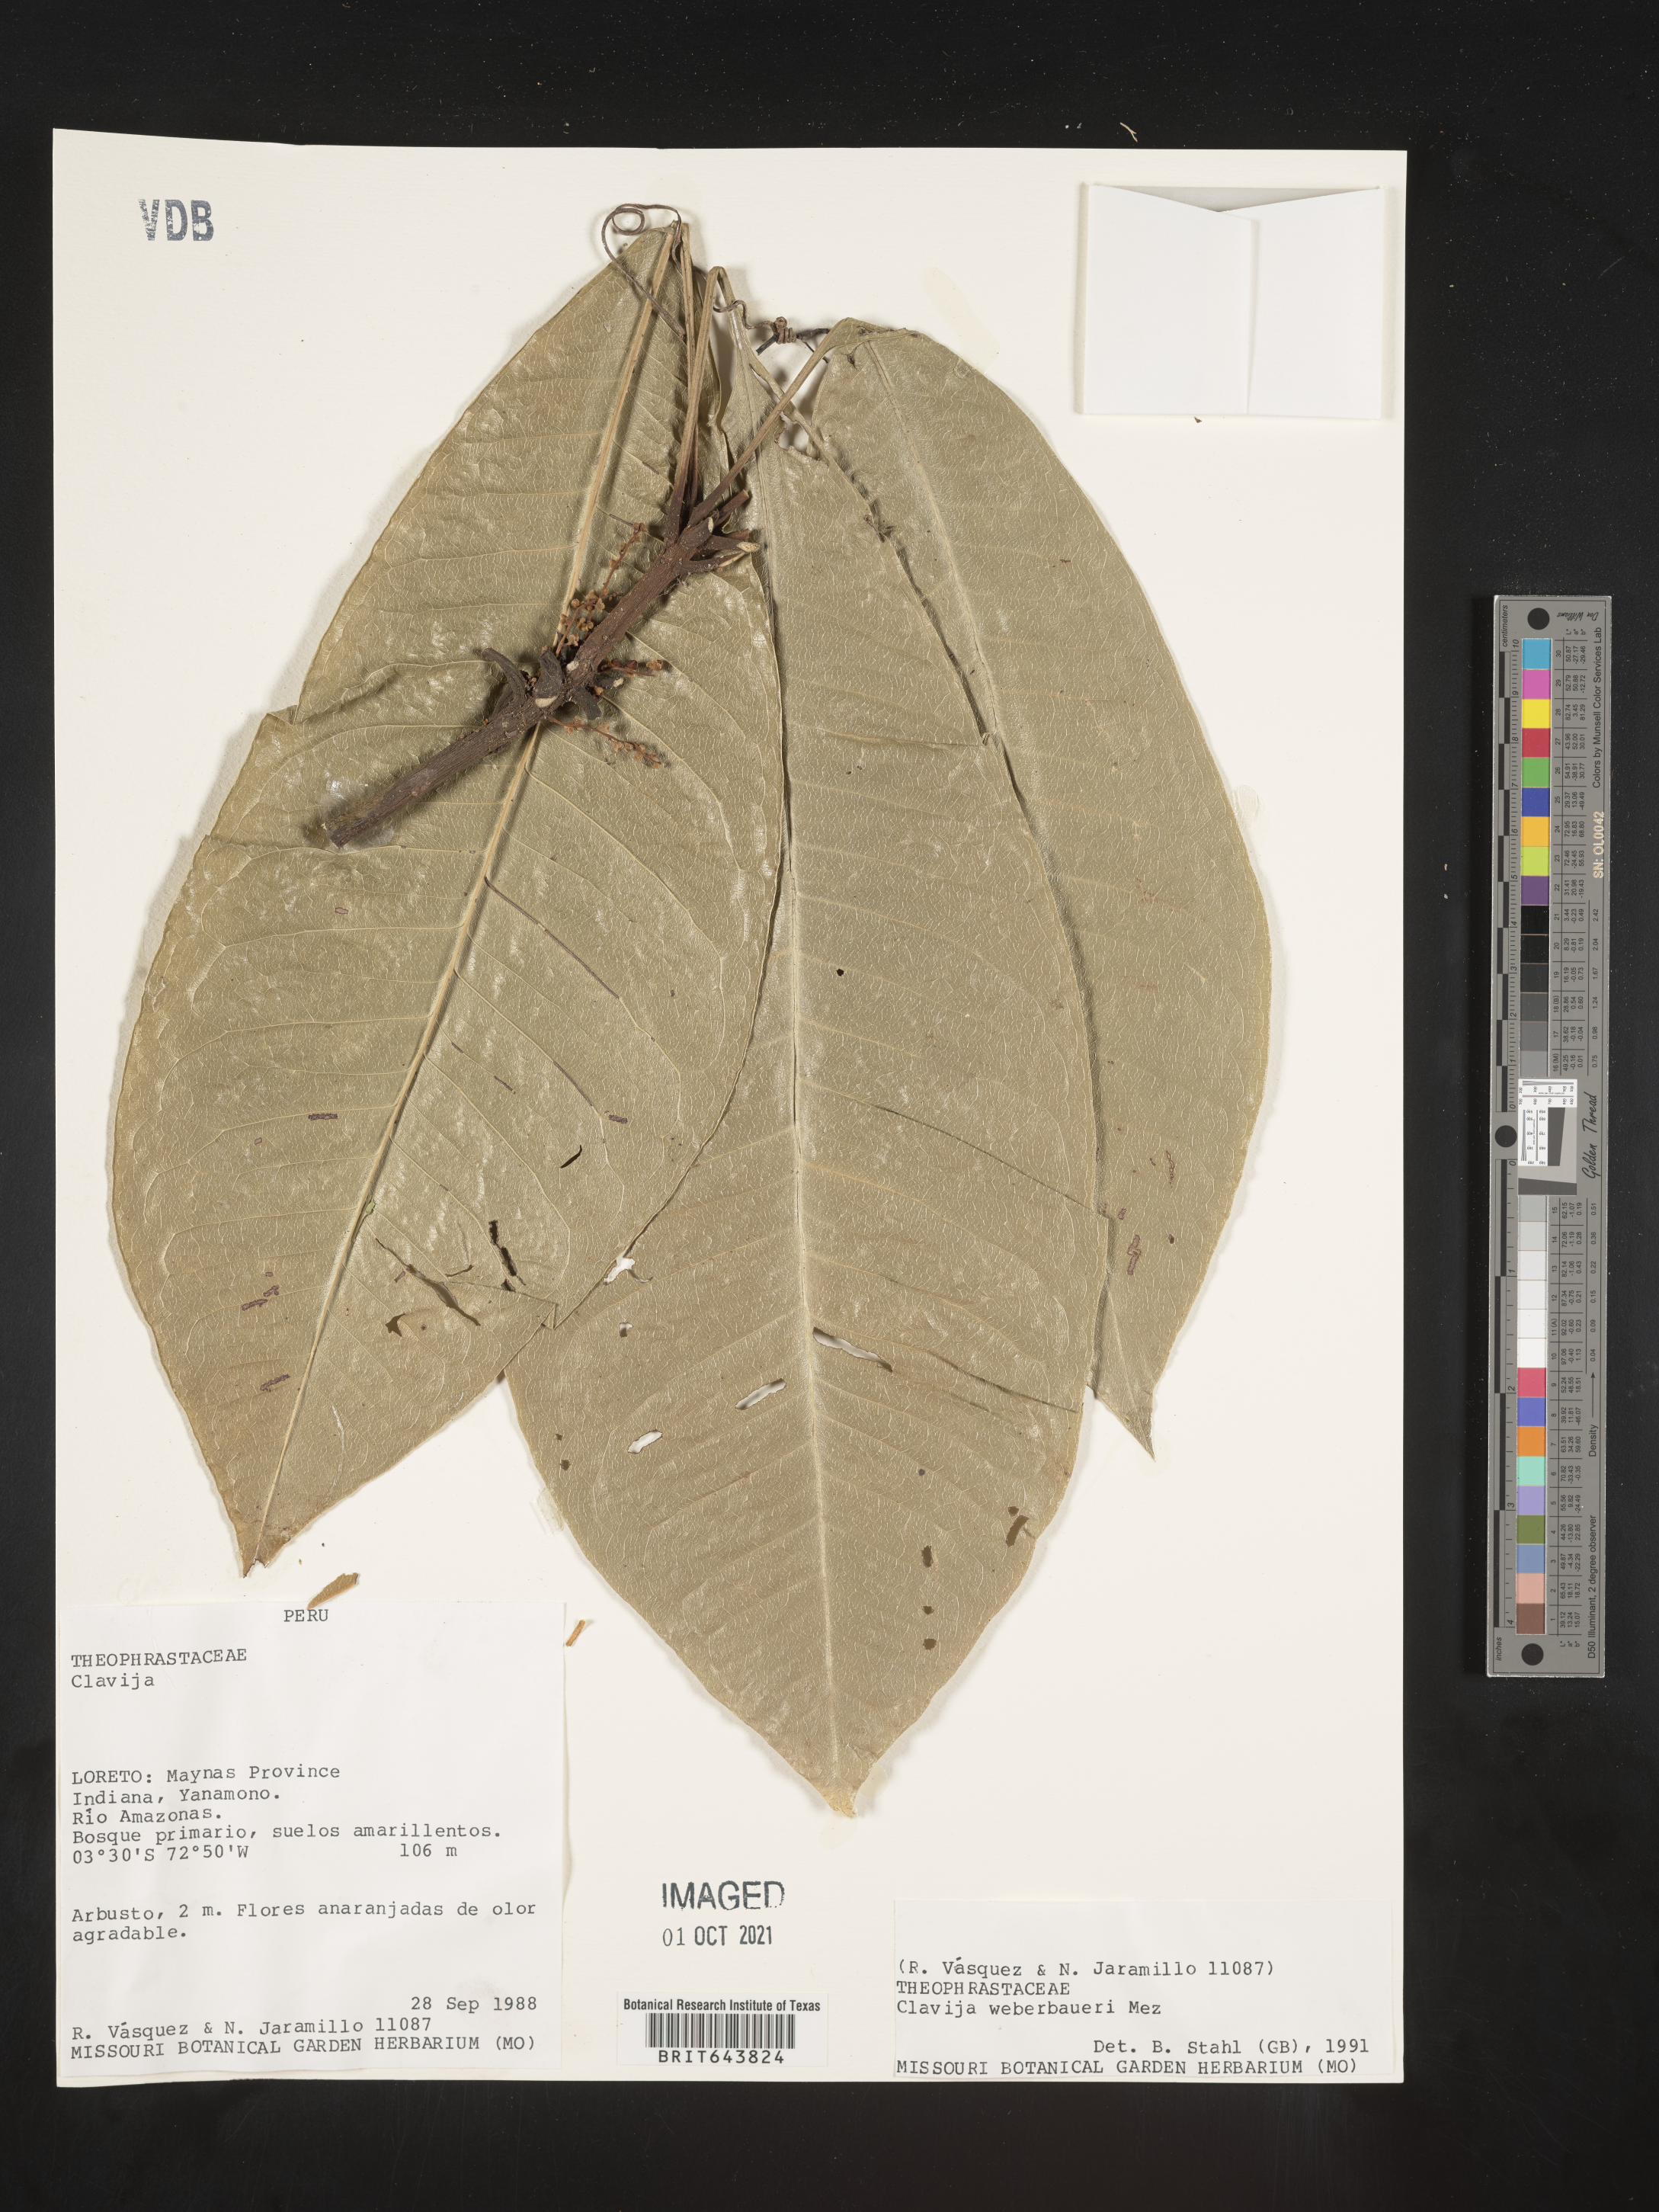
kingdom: Plantae
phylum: Tracheophyta
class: Magnoliopsida
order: Ericales
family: Primulaceae
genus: Clavija
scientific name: Clavija
